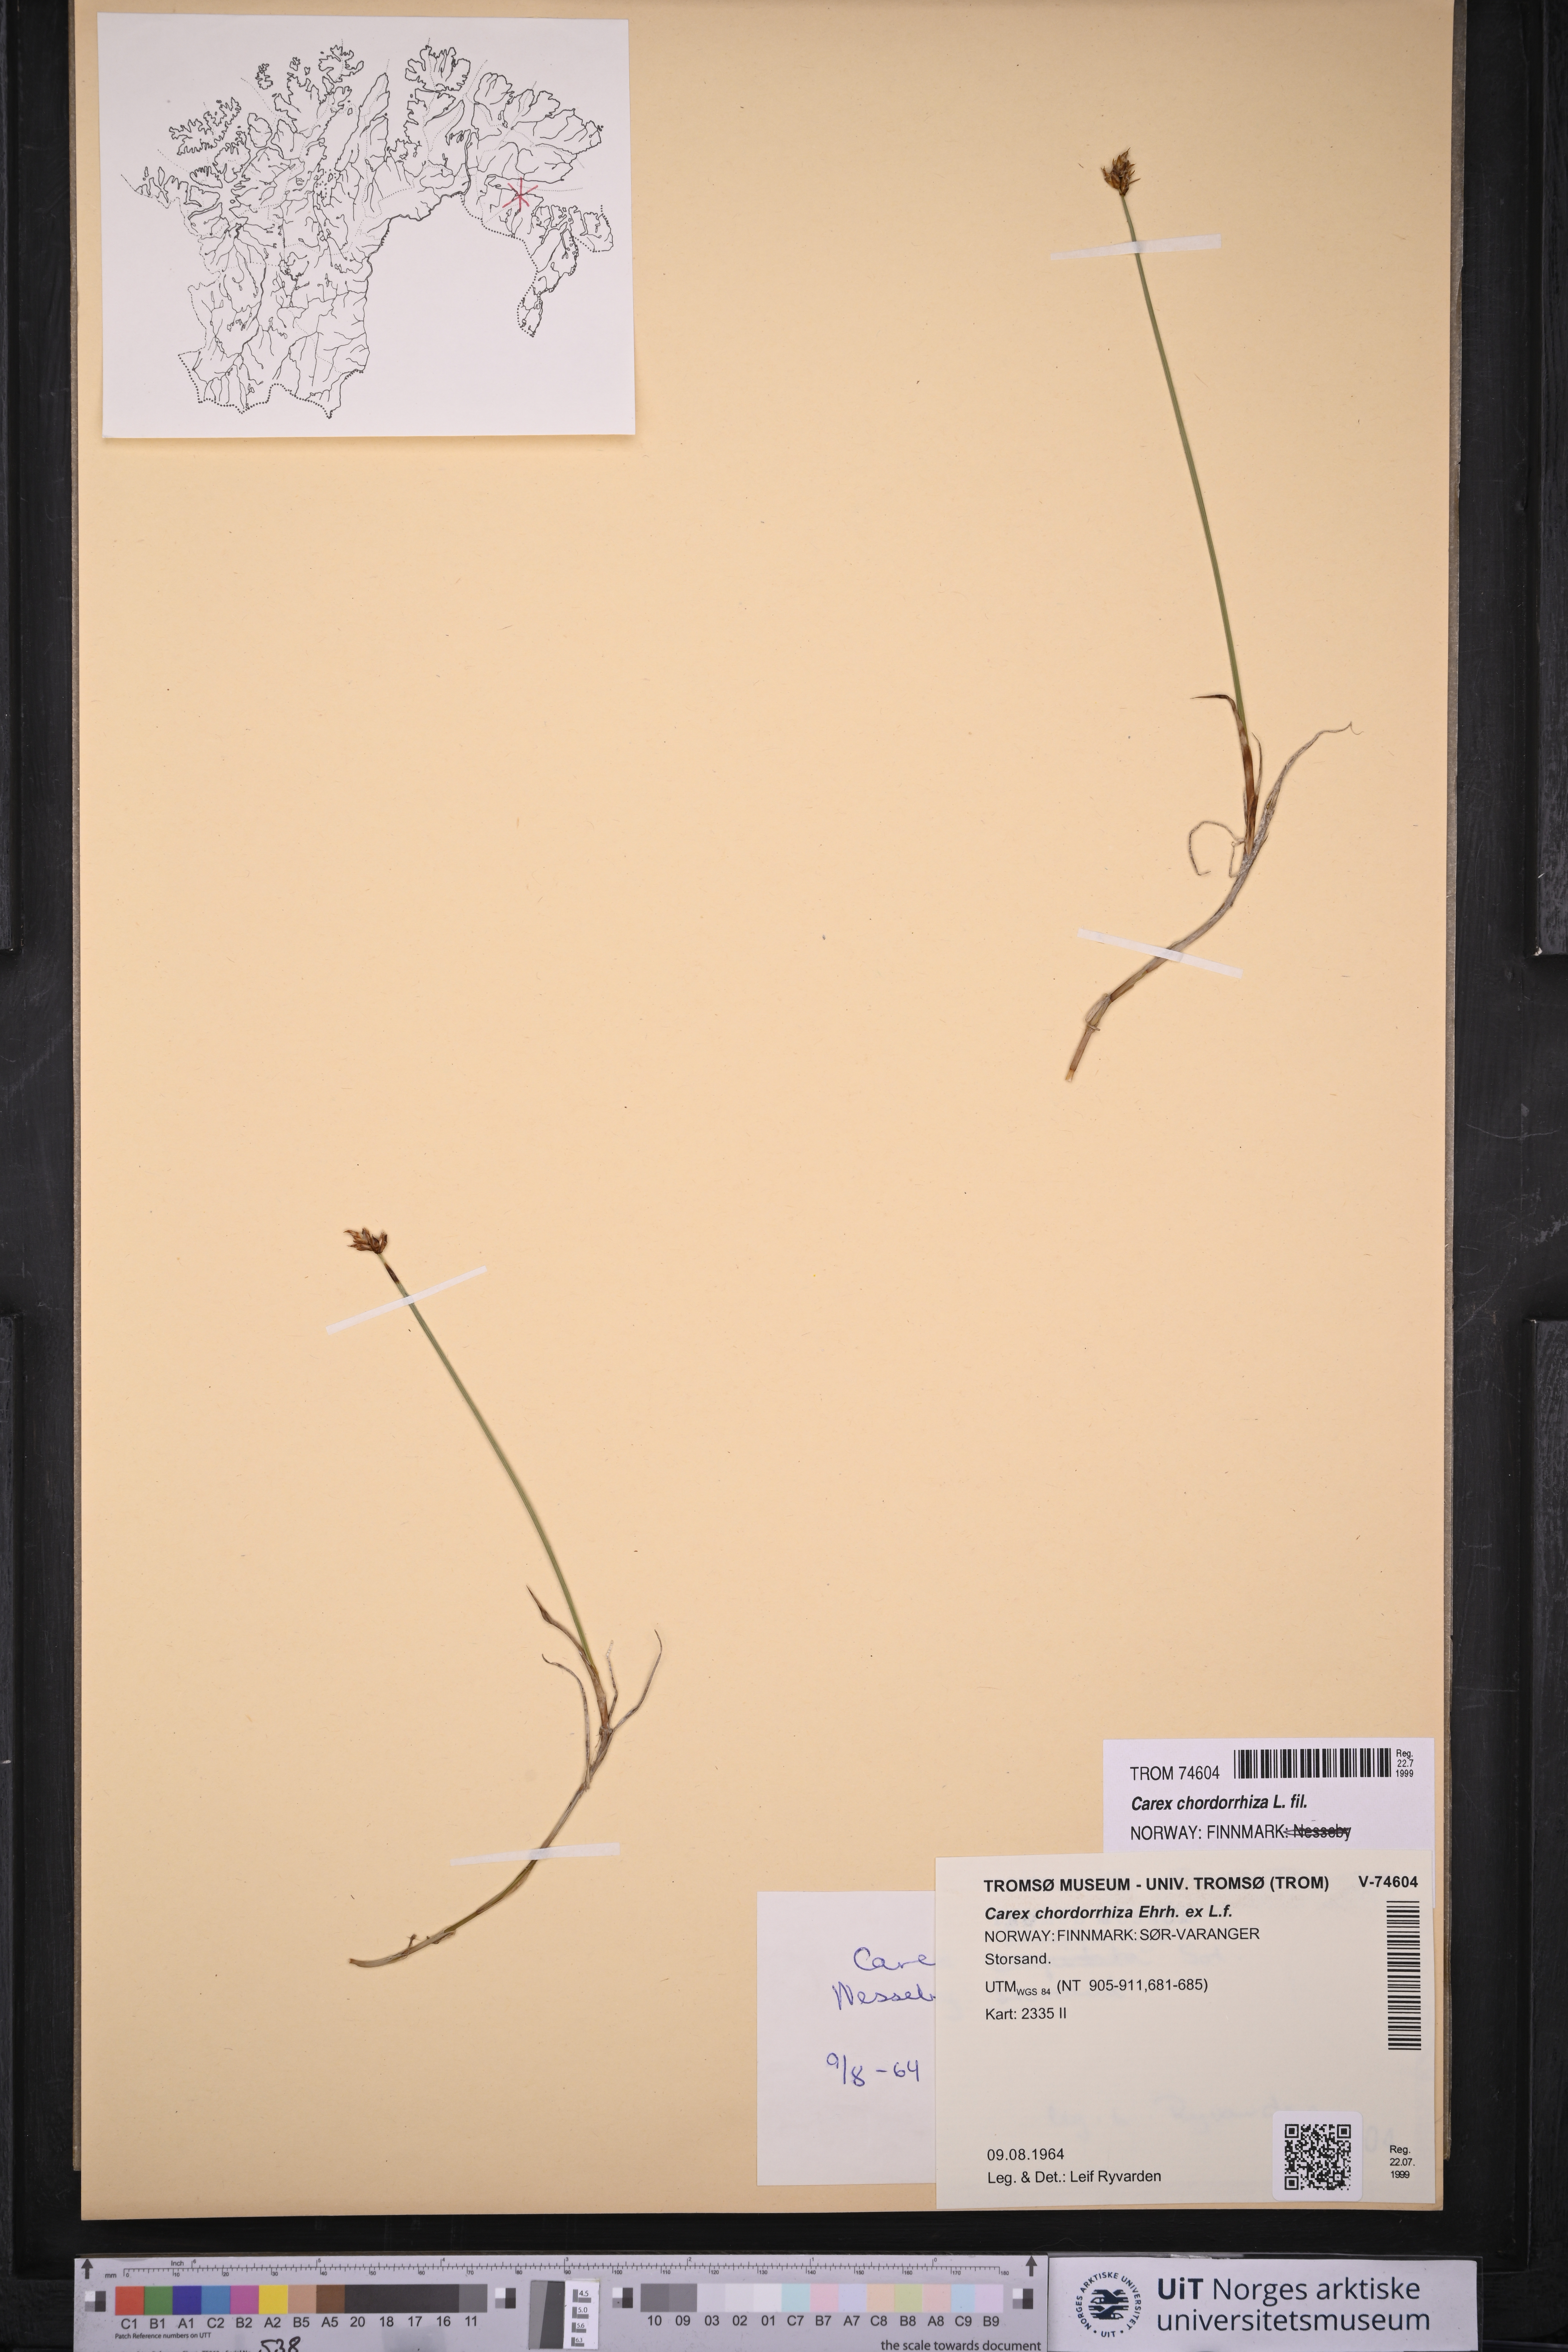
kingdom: Plantae
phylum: Tracheophyta
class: Liliopsida
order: Poales
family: Cyperaceae
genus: Carex
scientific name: Carex chordorrhiza
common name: String sedge
